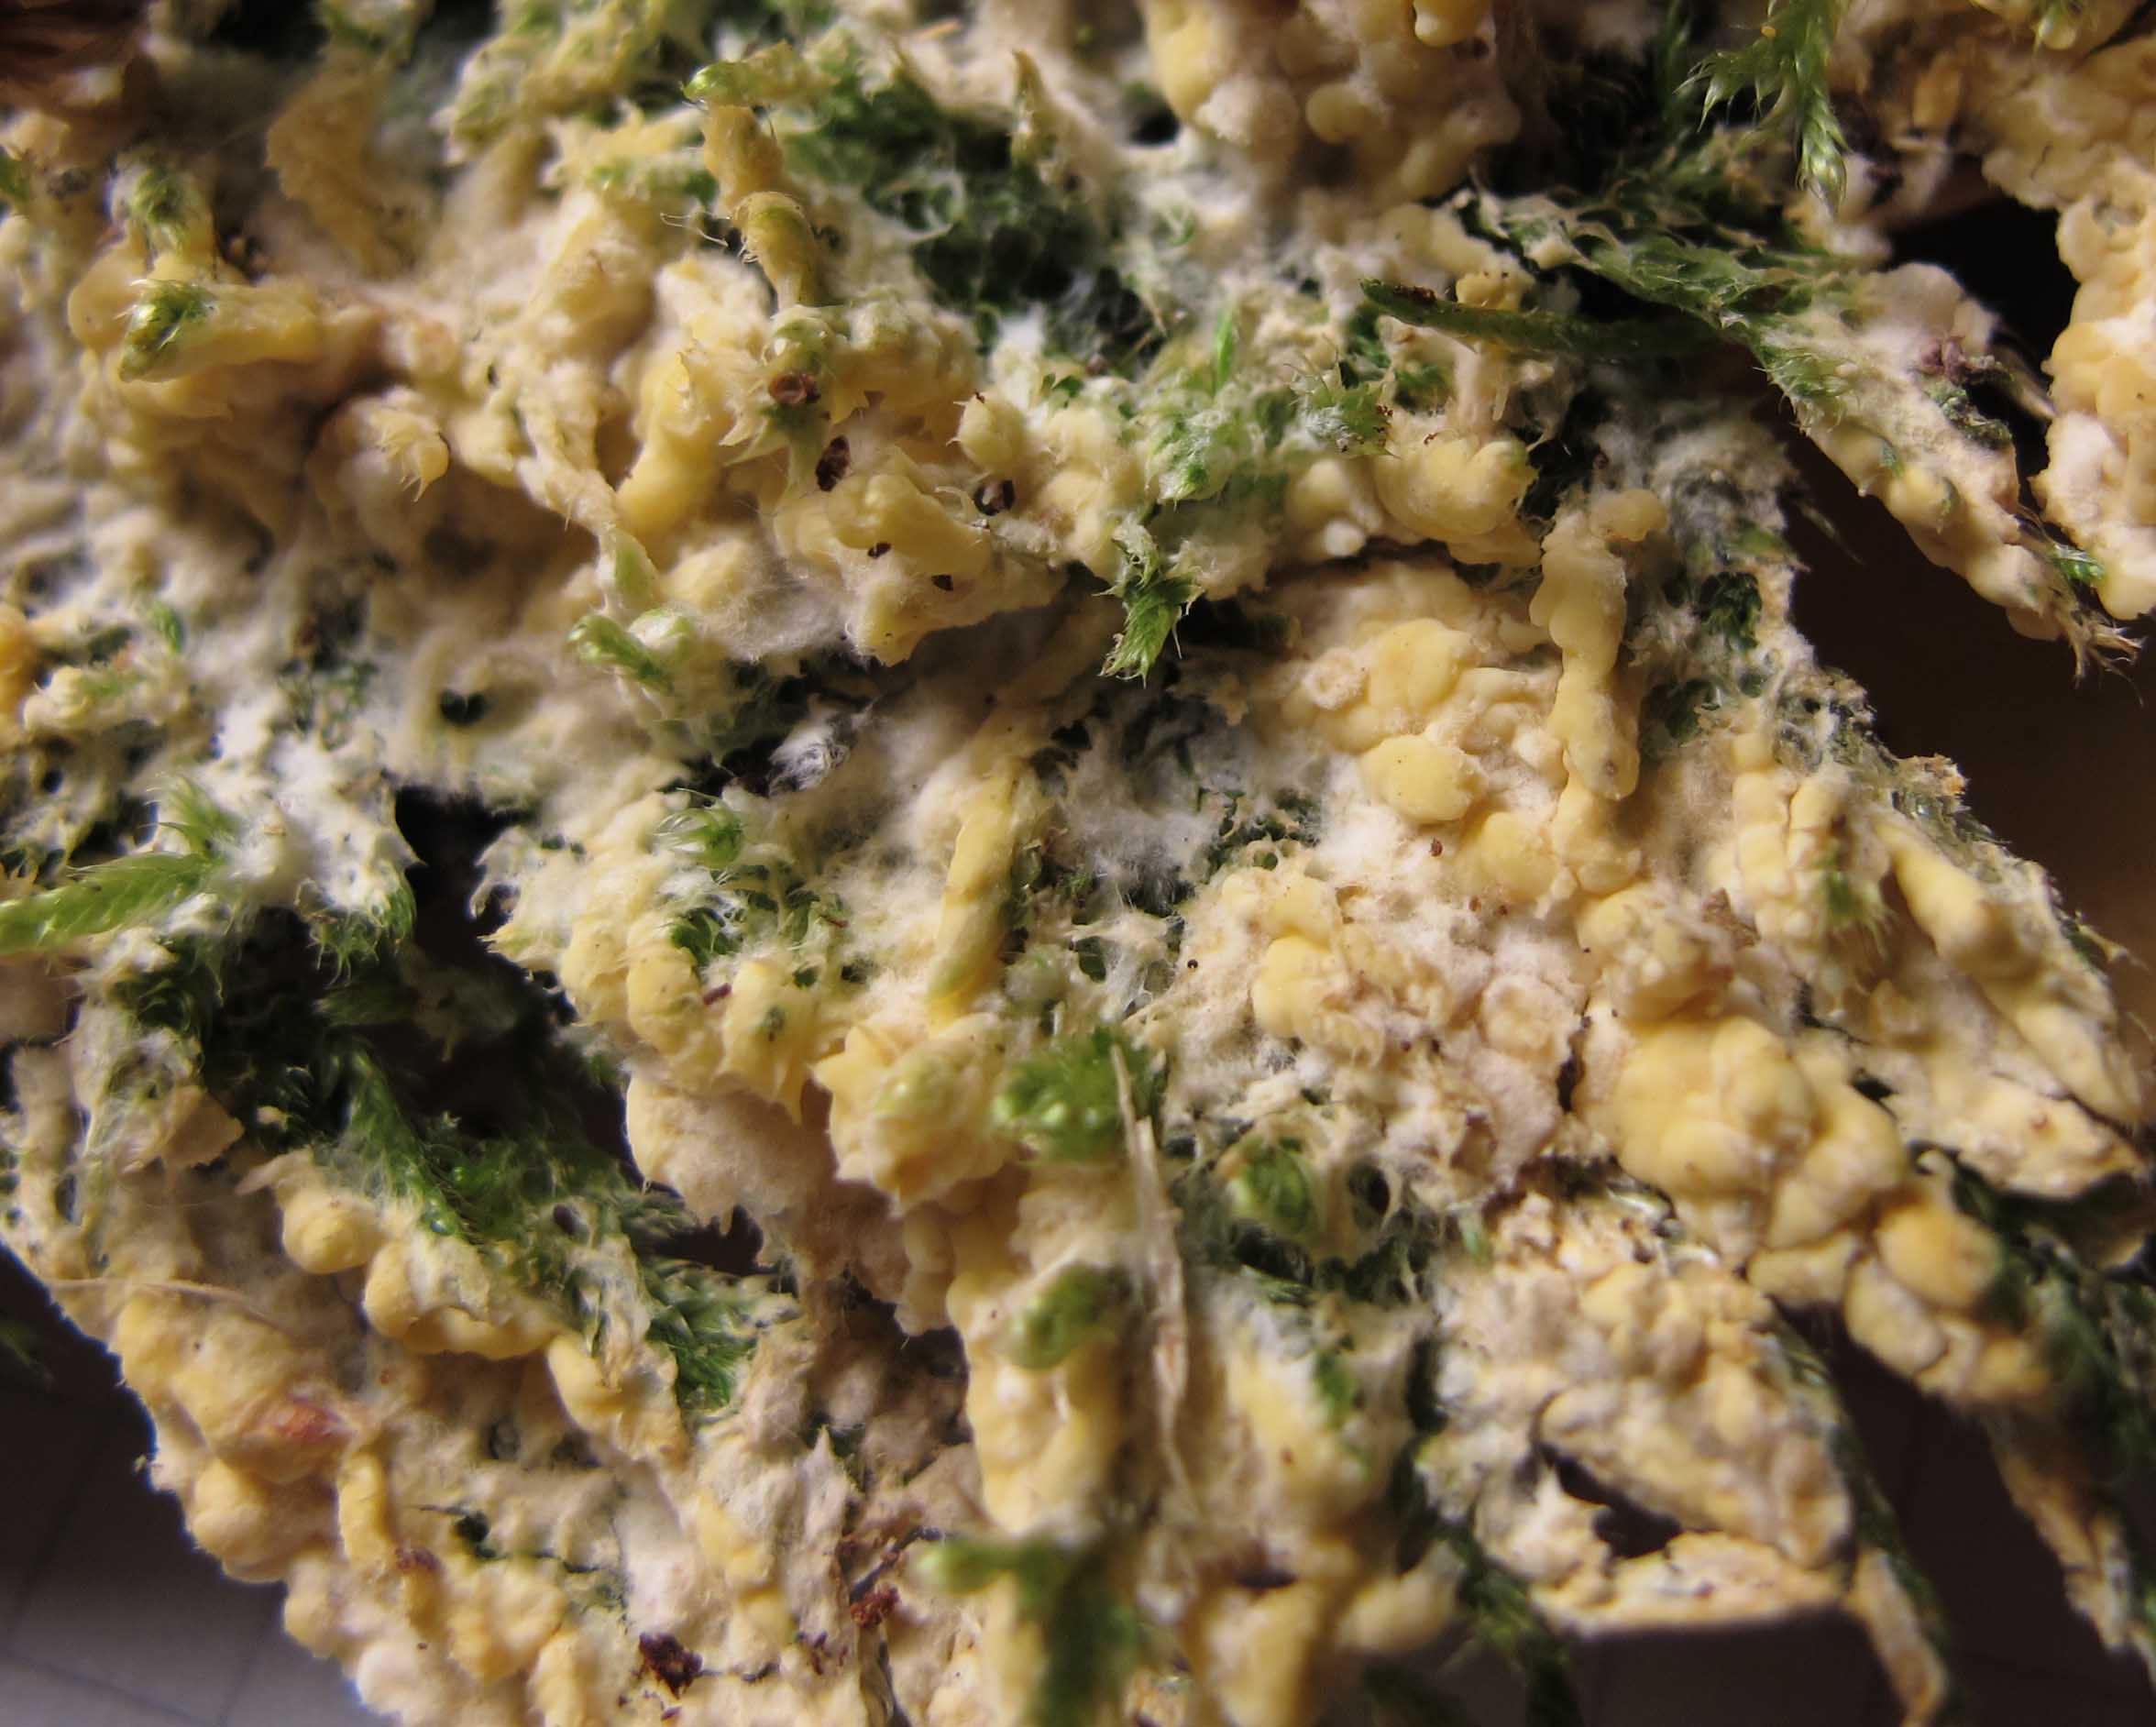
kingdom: Fungi
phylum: Basidiomycota
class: Agaricomycetes
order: Russulales
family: Peniophoraceae
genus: Gloiothele
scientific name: Gloiothele citrina
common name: citronskorpe
